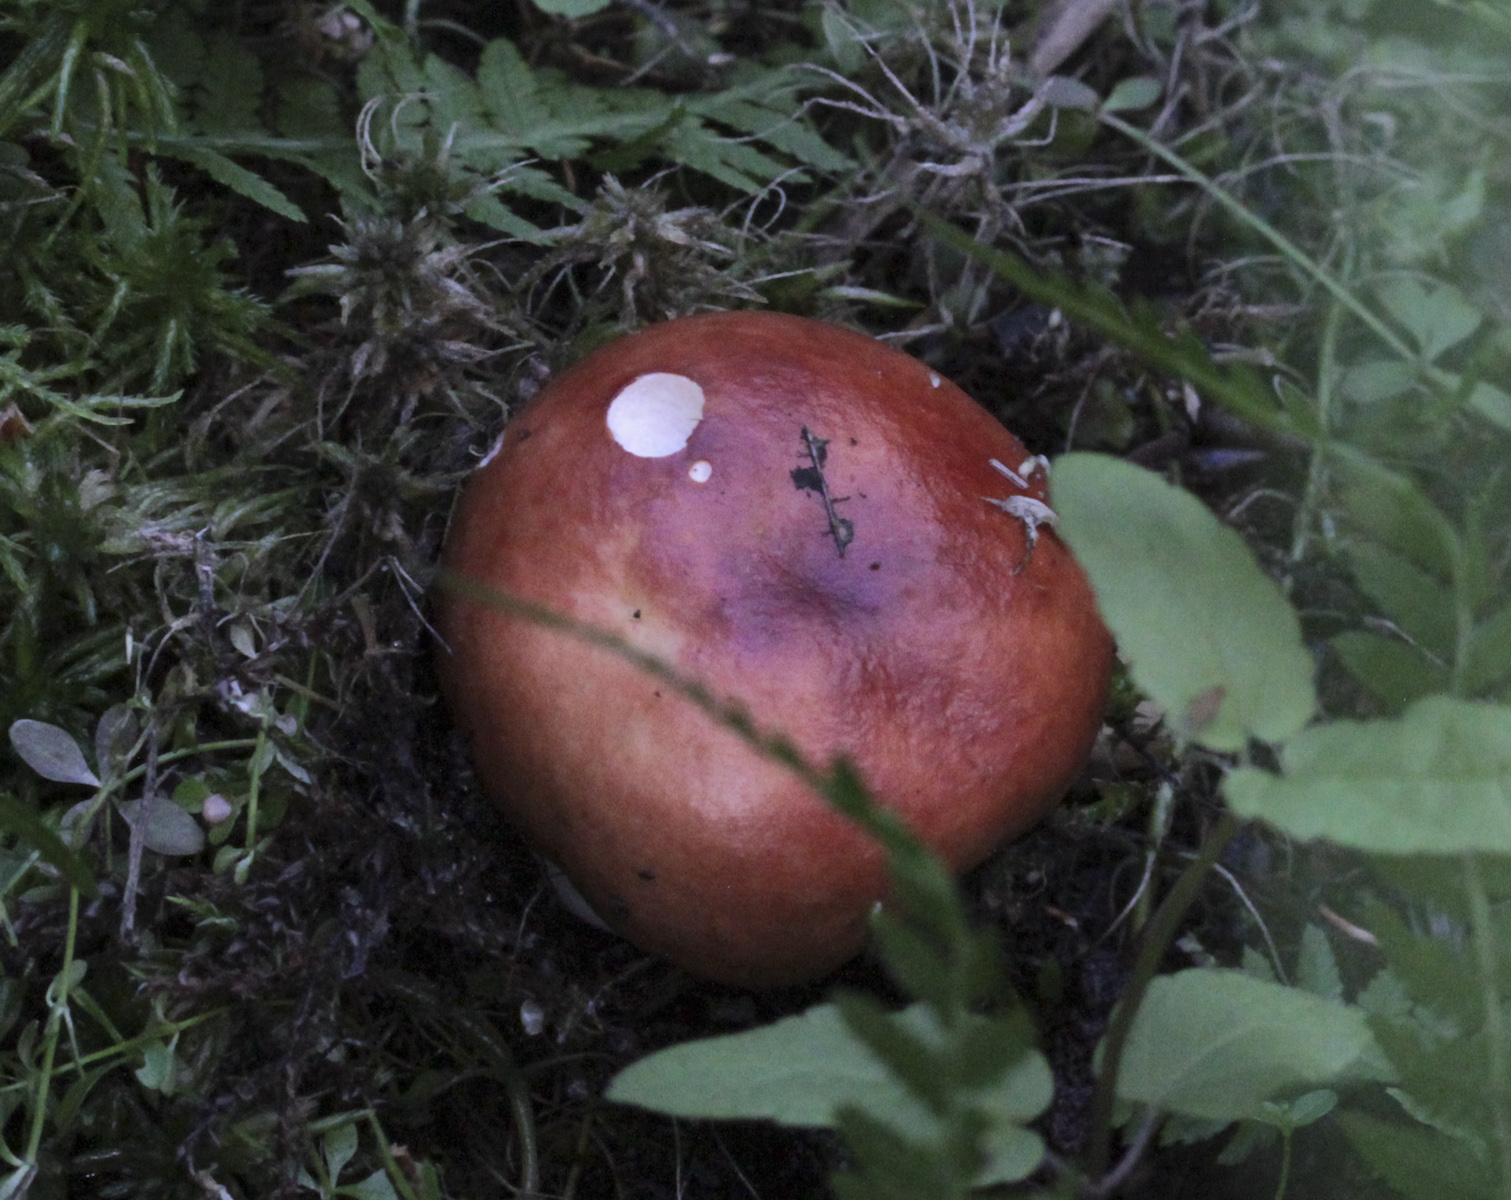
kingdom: Fungi
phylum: Basidiomycota
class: Agaricomycetes
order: Russulales
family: Russulaceae
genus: Russula
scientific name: Russula
